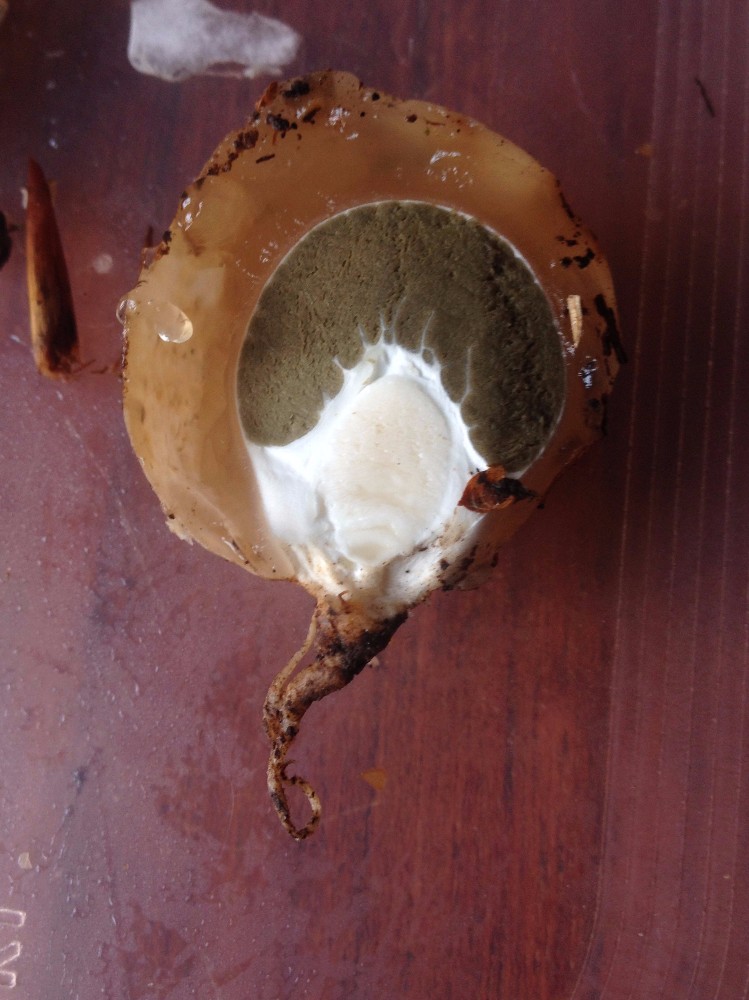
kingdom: Fungi
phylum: Basidiomycota
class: Agaricomycetes
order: Phallales
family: Phallaceae
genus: Phallus
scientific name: Phallus impudicus
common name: almindelig stinksvamp
